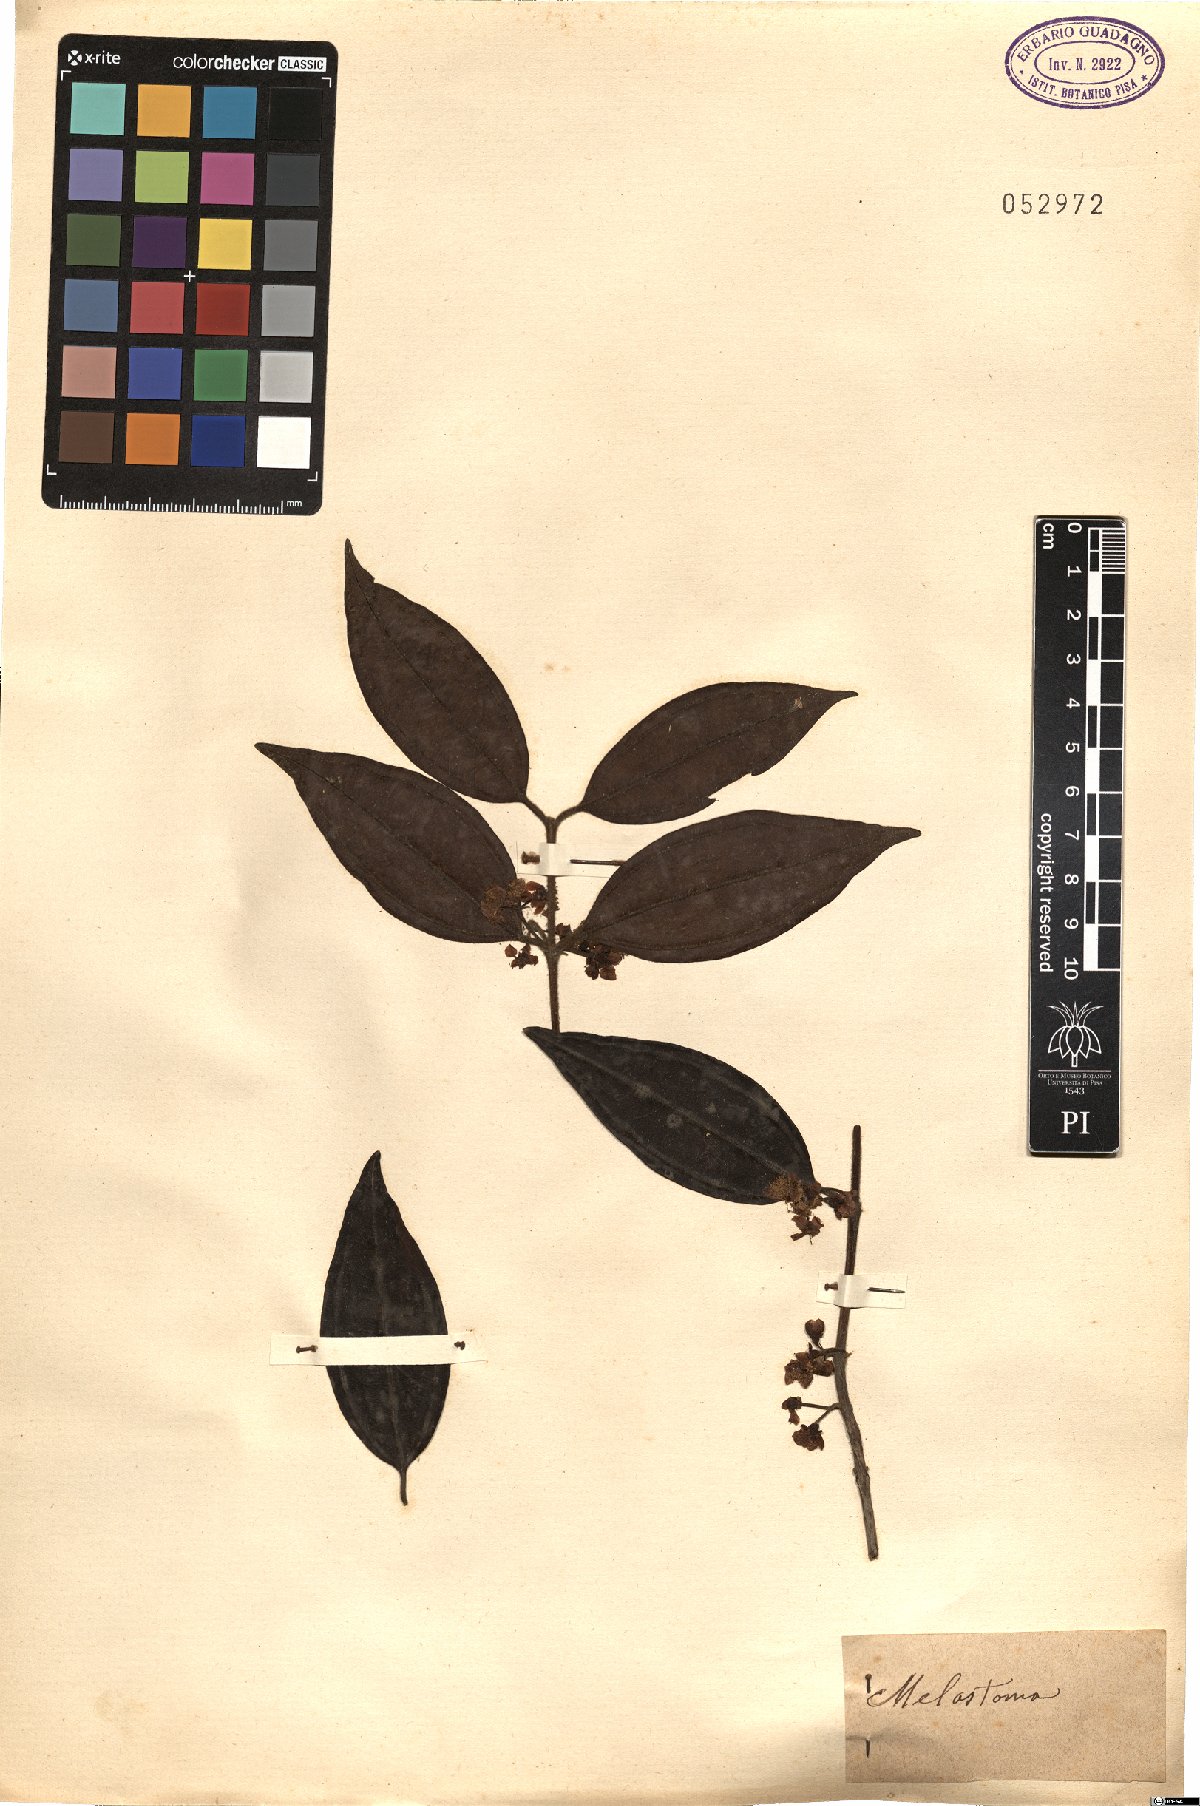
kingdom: Plantae
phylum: Tracheophyta
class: Magnoliopsida
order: Myrtales
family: Melastomataceae
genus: Melastoma
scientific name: Melastoma
